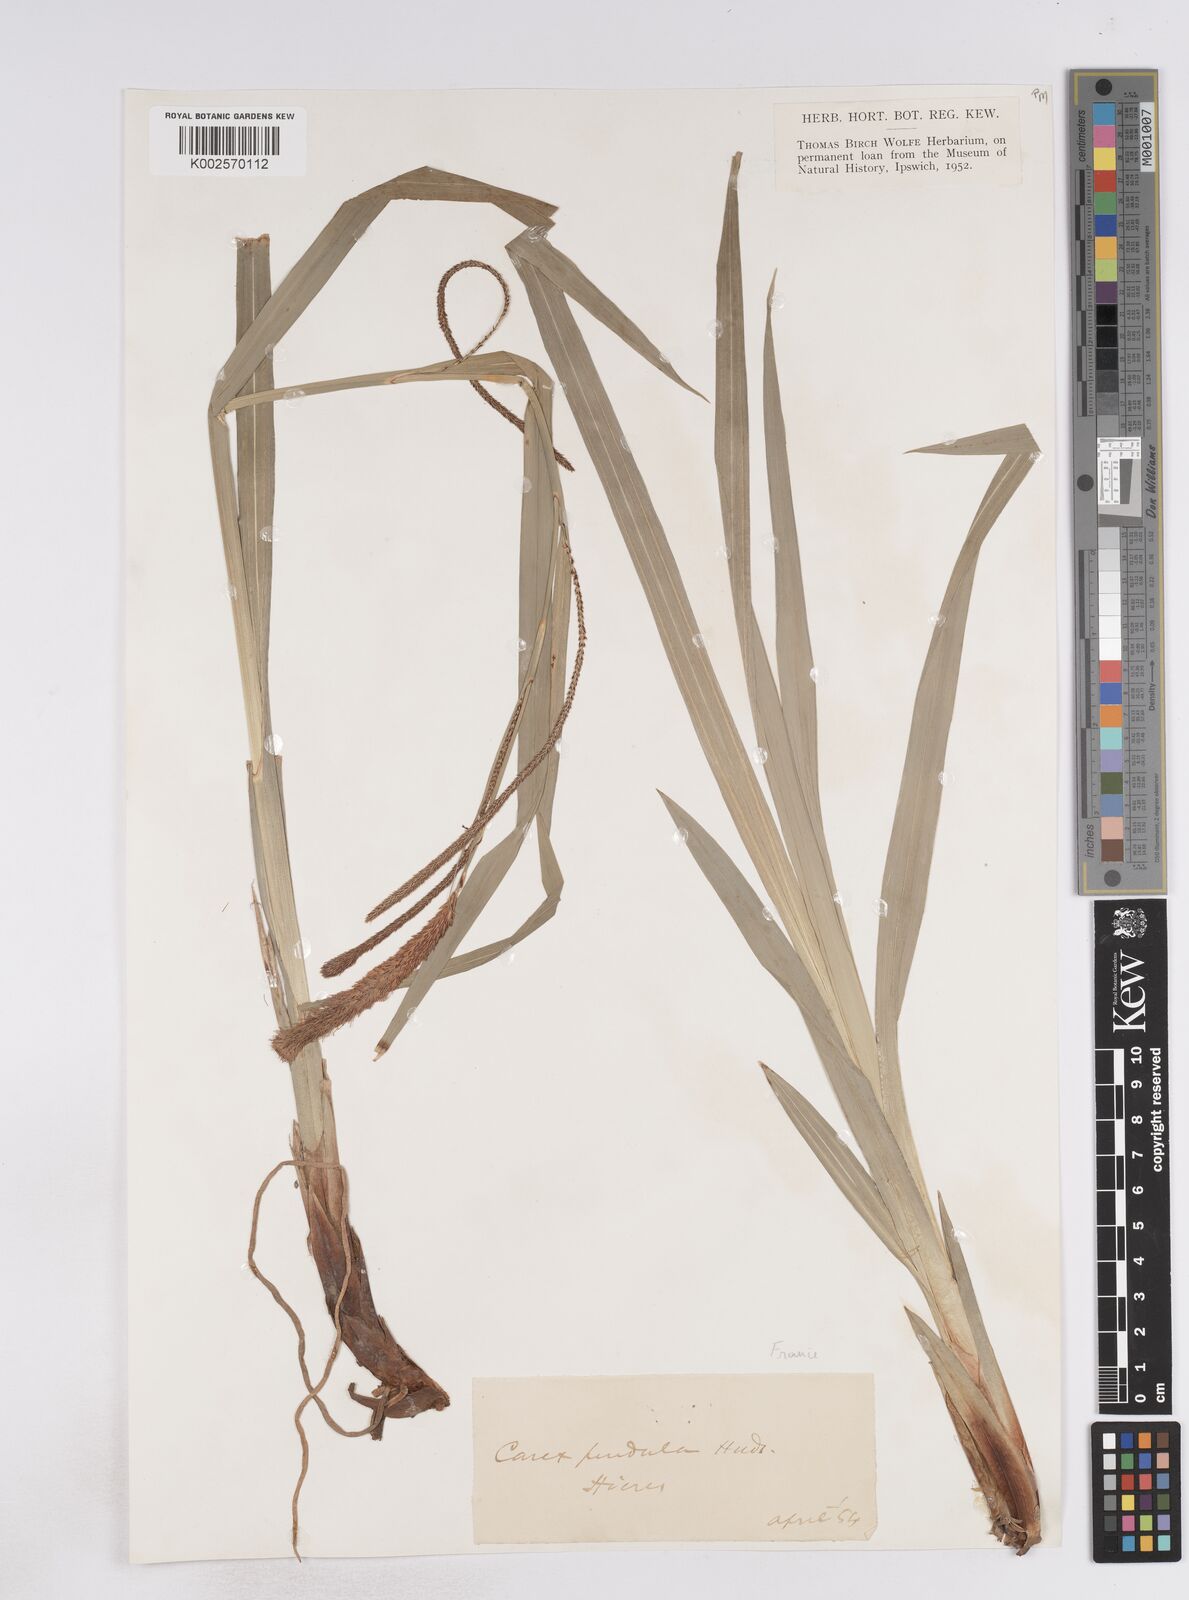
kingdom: Plantae
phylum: Tracheophyta
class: Liliopsida
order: Poales
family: Cyperaceae
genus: Carex
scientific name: Carex pendula
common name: Pendulous sedge
